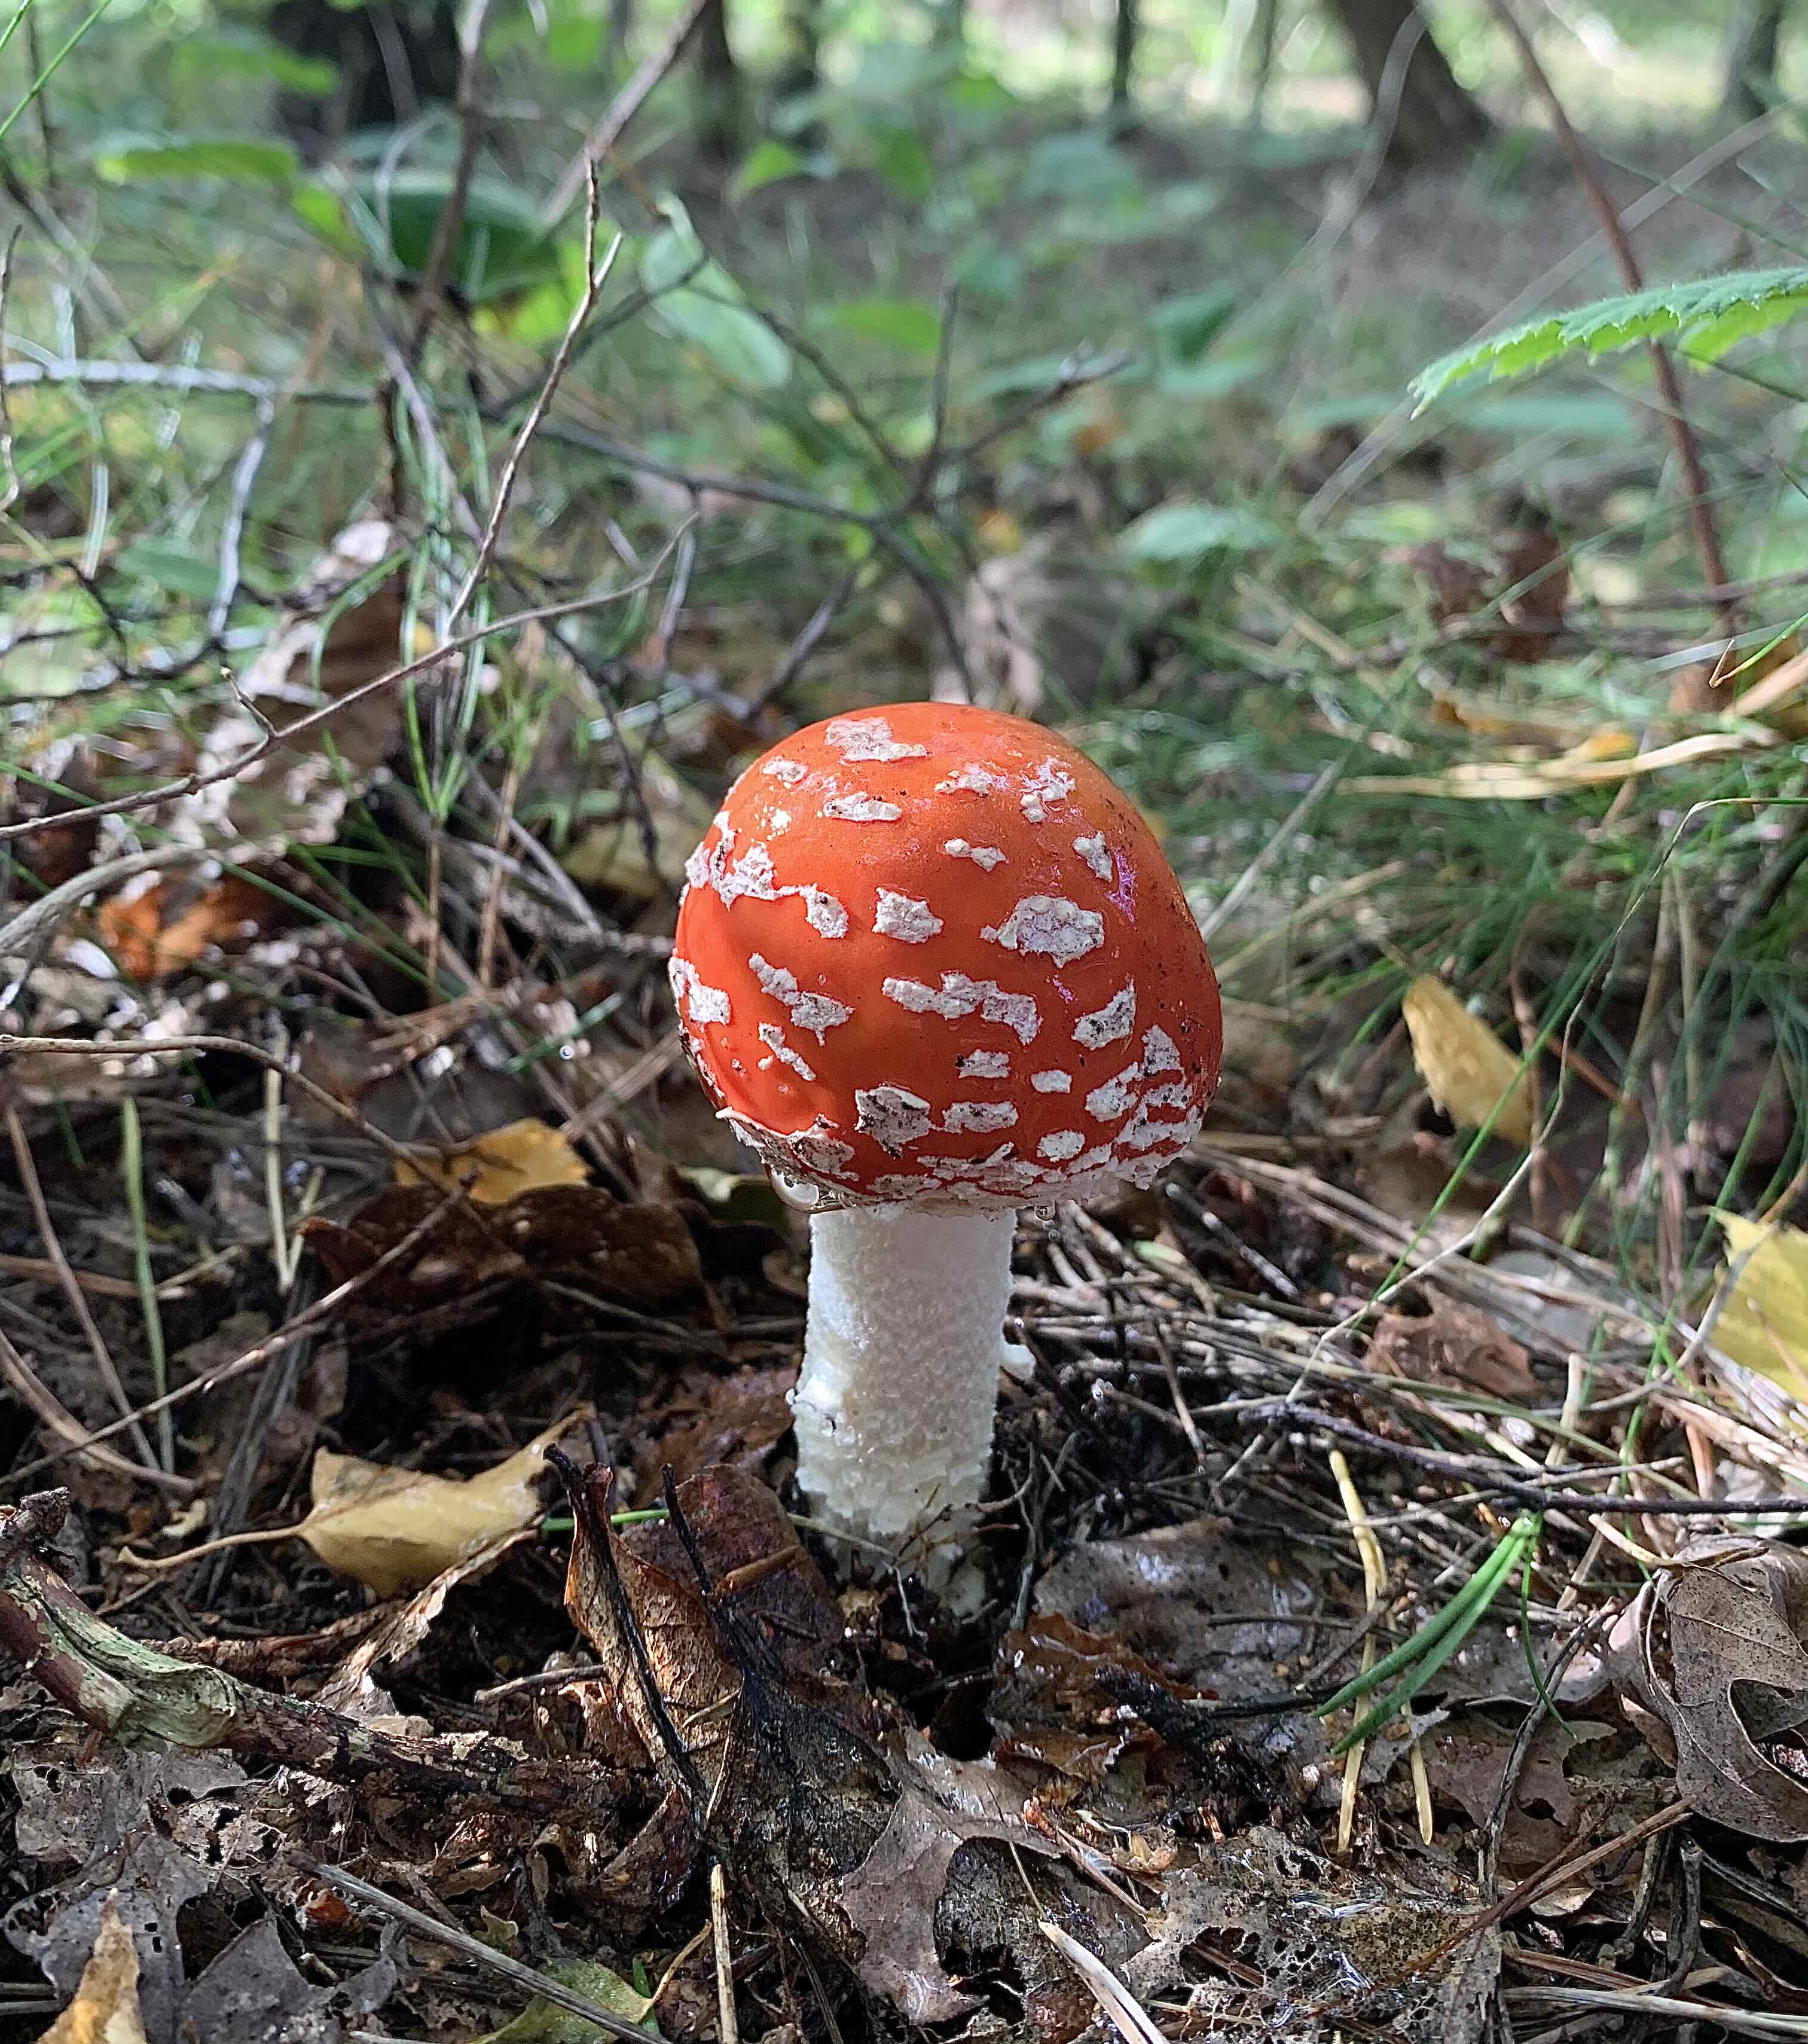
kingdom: Fungi
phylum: Basidiomycota
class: Agaricomycetes
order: Agaricales
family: Amanitaceae
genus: Amanita
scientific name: Amanita muscaria
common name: rød fluesvamp
